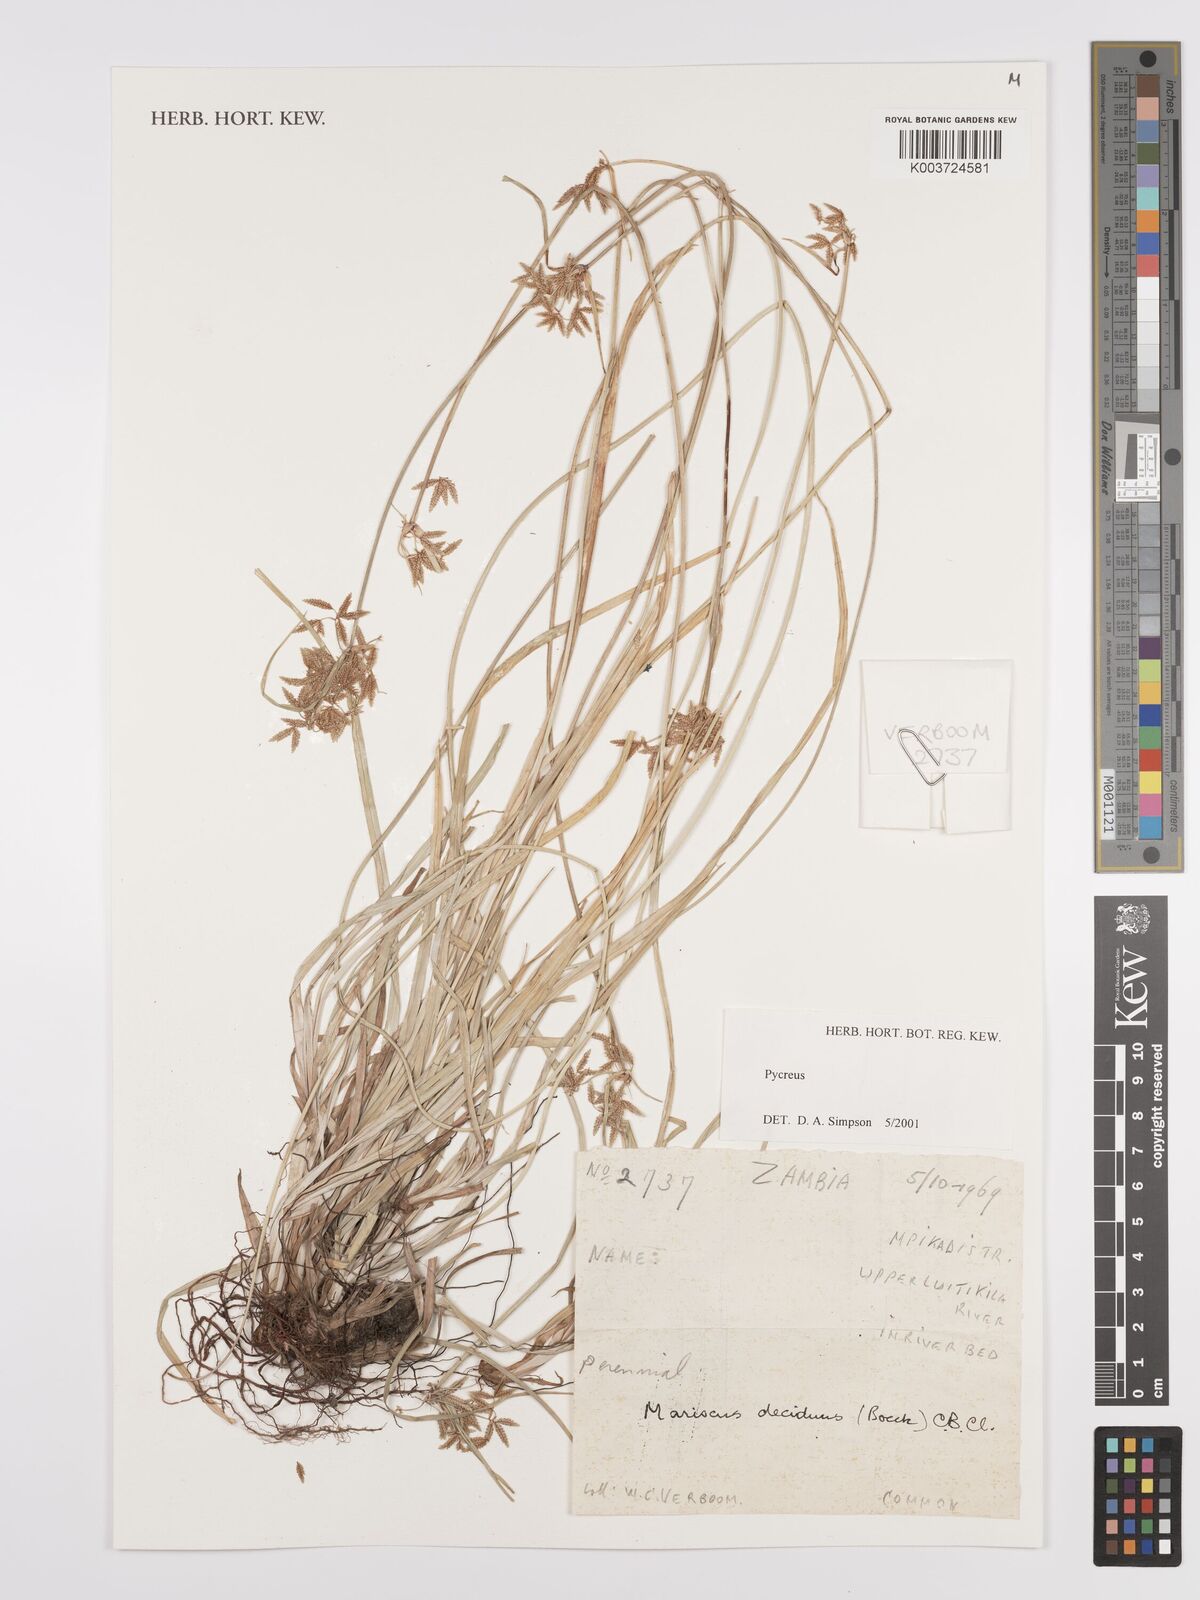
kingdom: Plantae
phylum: Tracheophyta
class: Liliopsida
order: Poales
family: Cyperaceae
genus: Cyperus
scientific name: Cyperus deciduus
